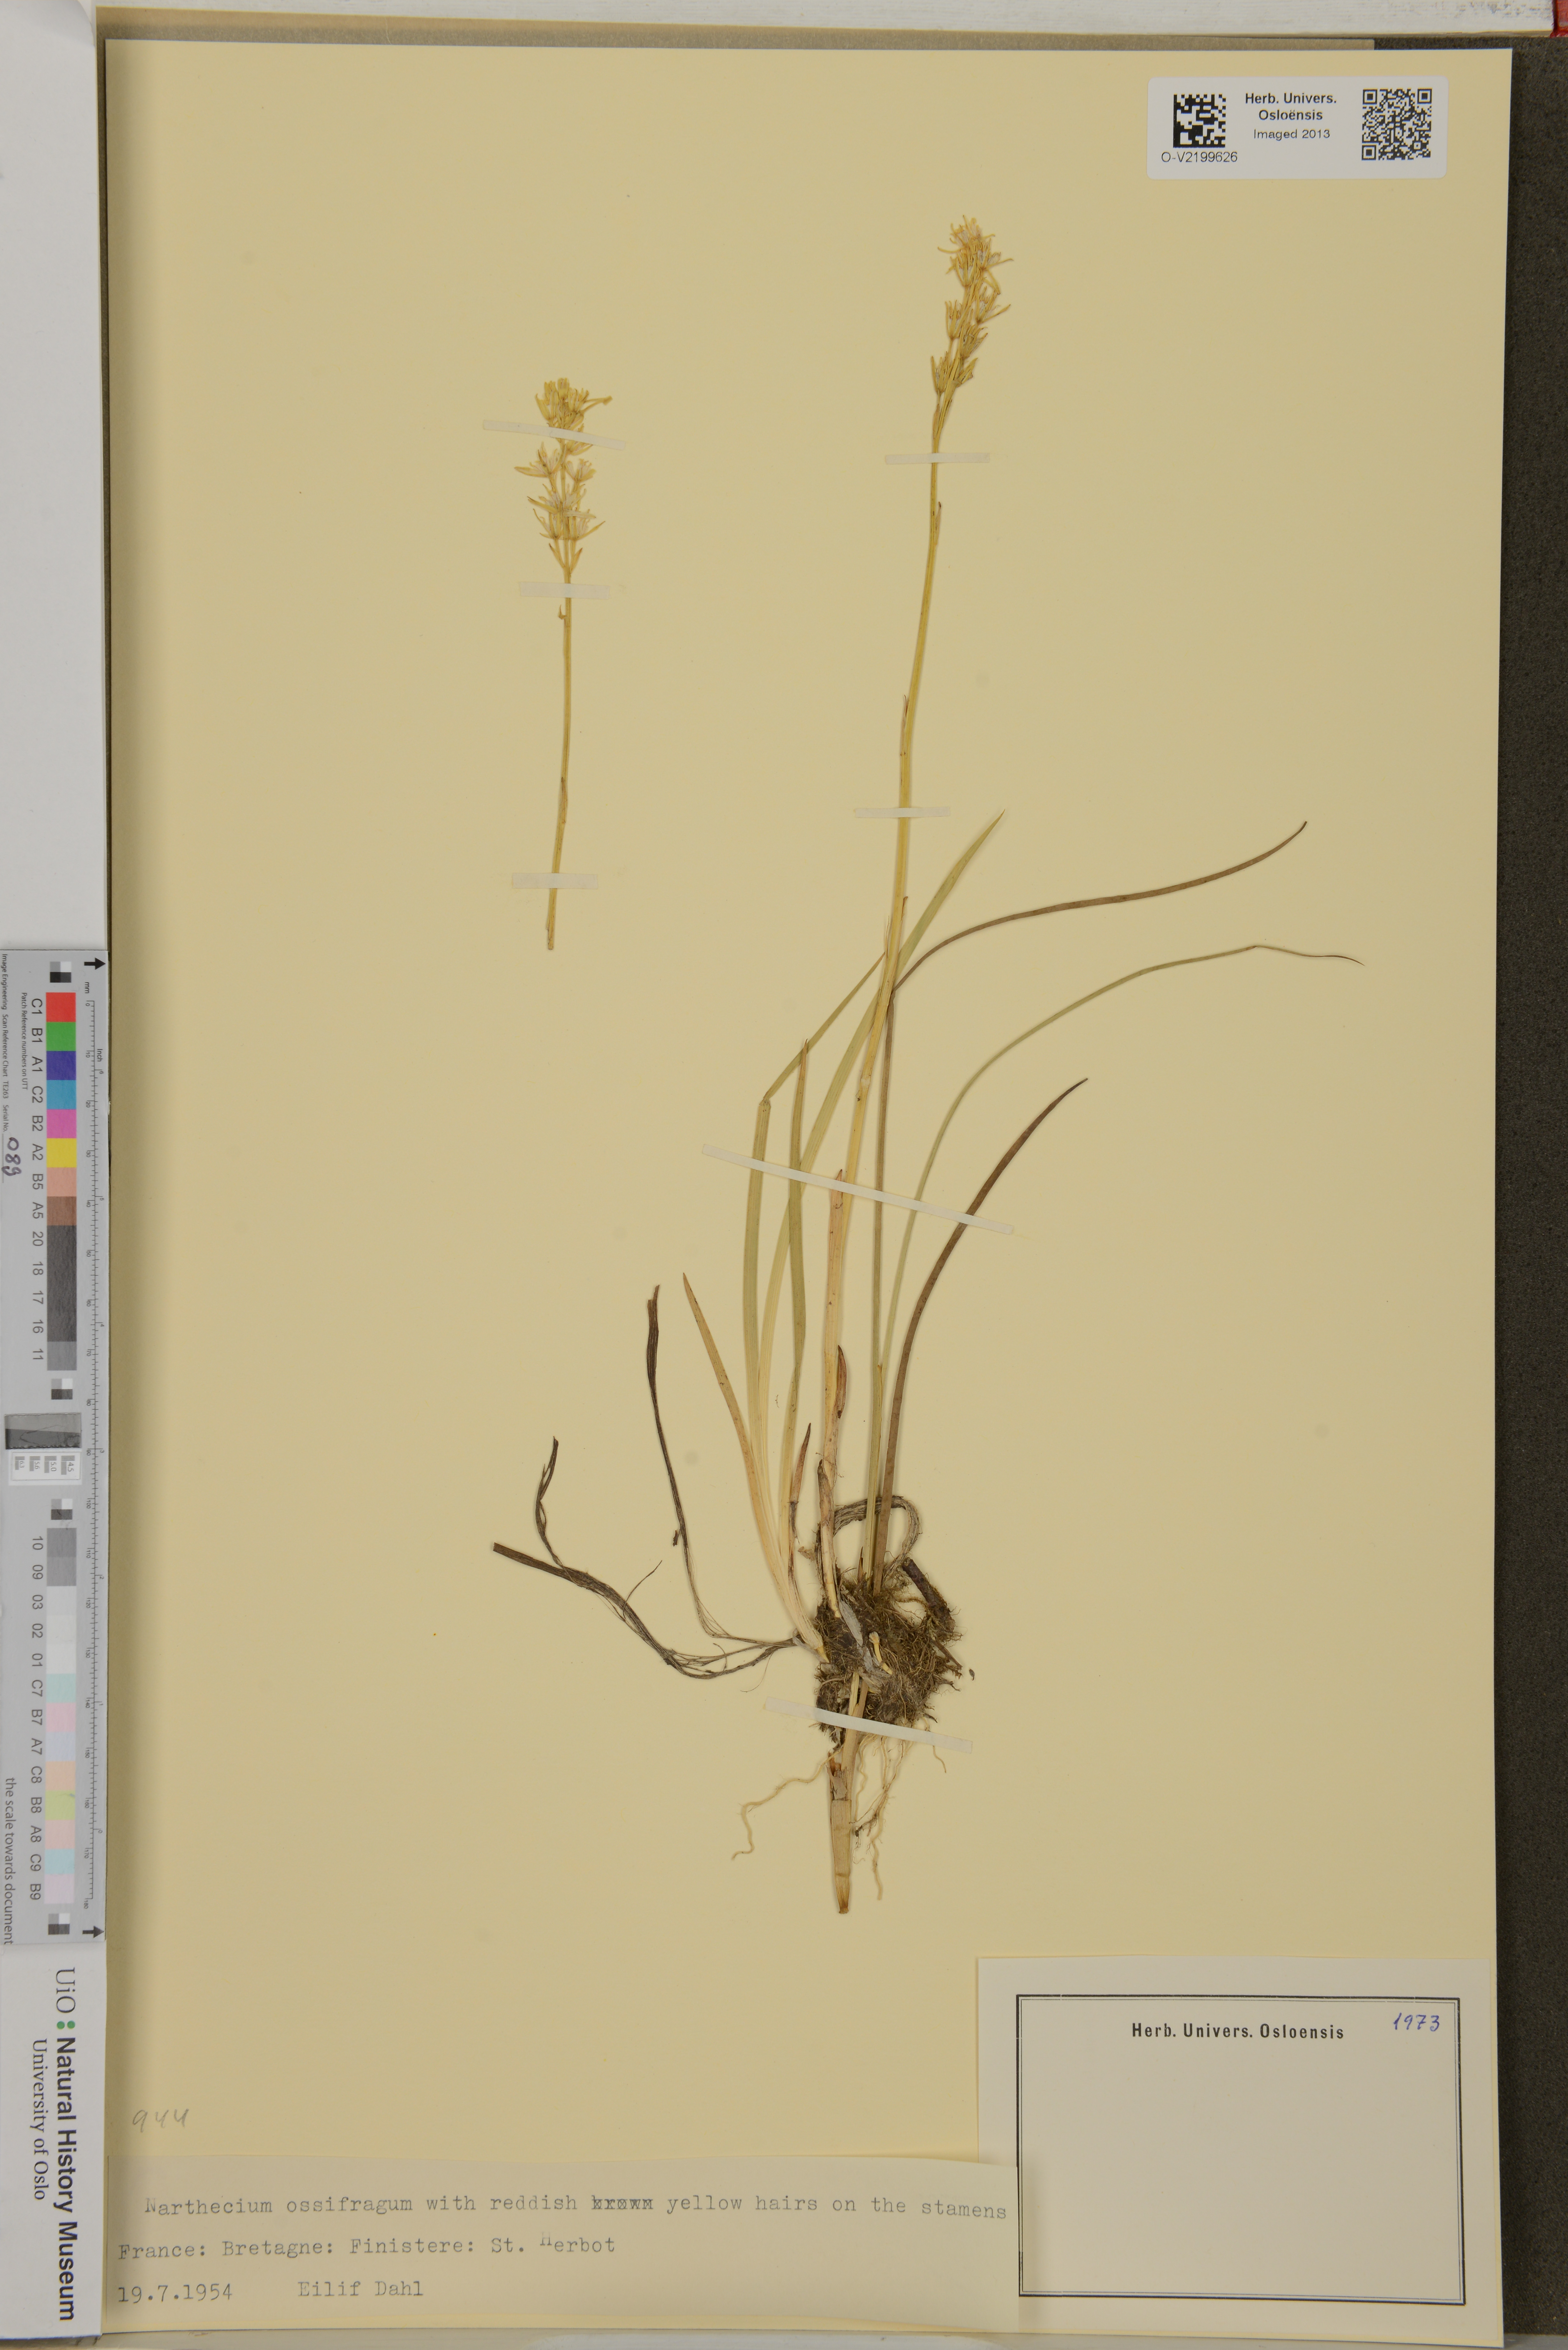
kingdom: Plantae
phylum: Tracheophyta
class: Liliopsida
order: Dioscoreales
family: Nartheciaceae
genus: Narthecium
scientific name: Narthecium ossifragum
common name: Bog asphodel
